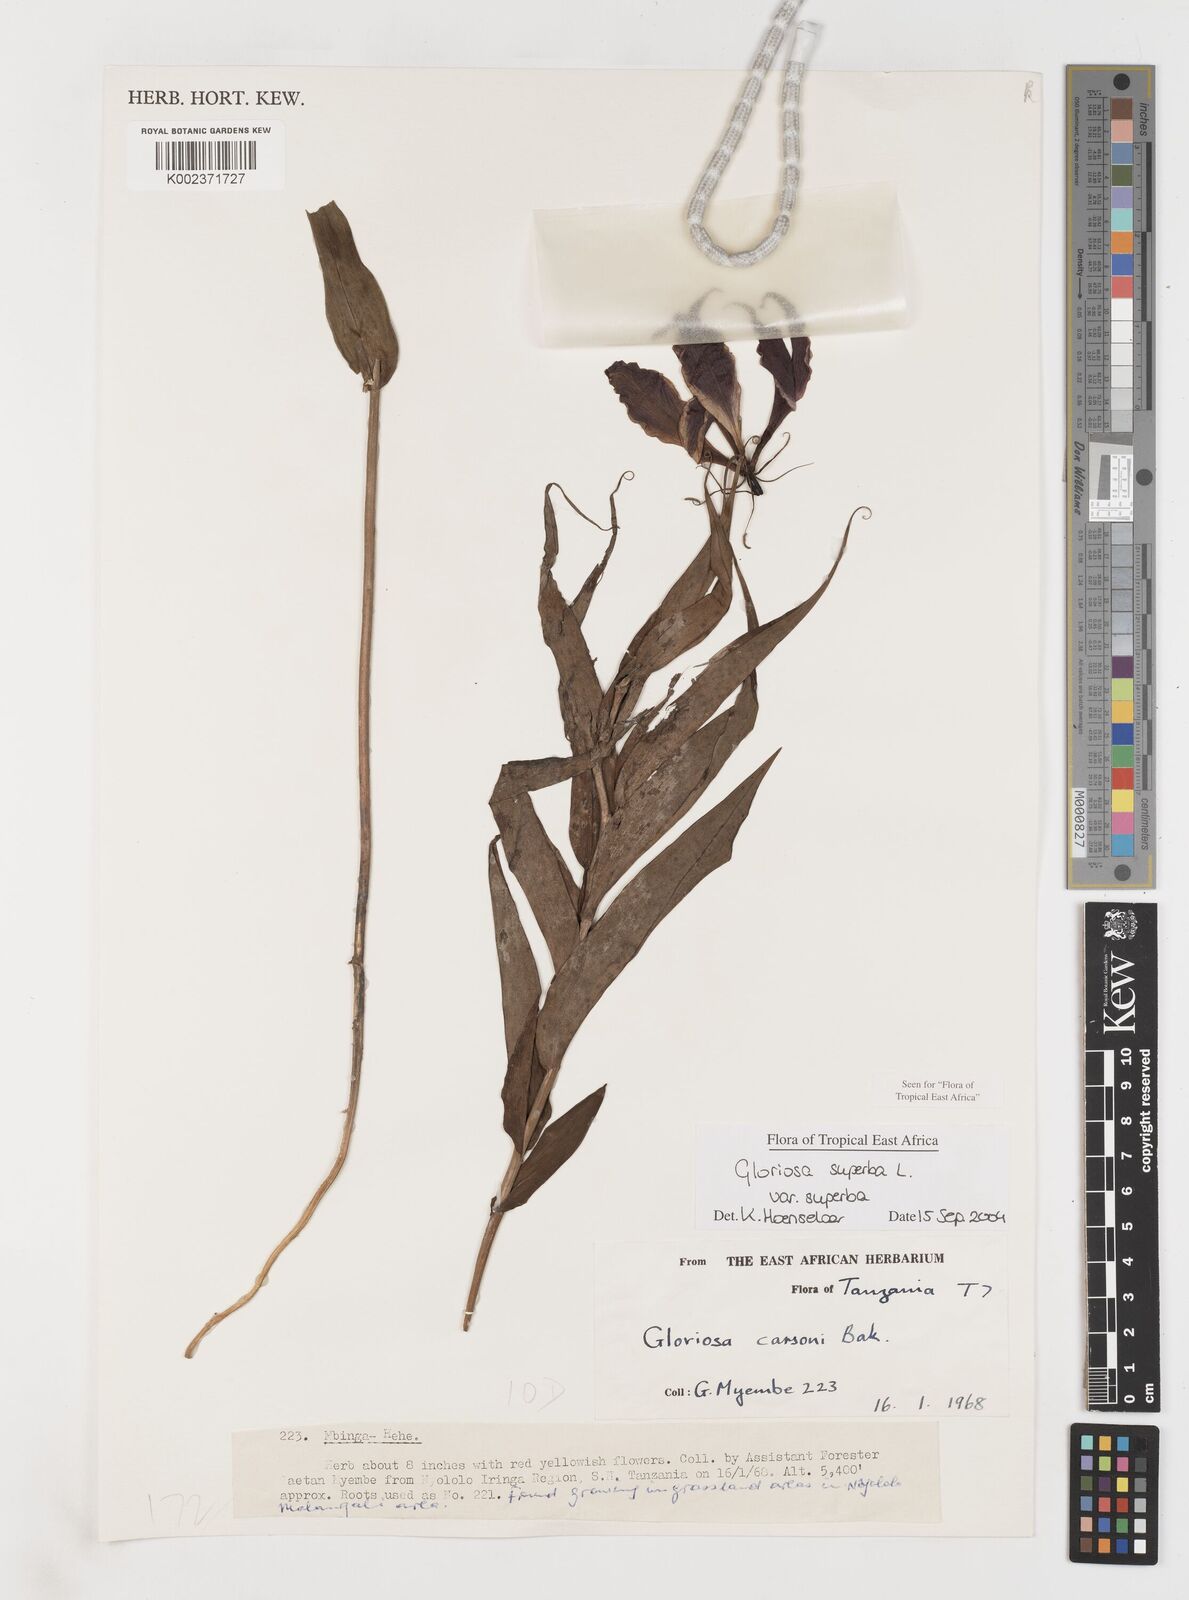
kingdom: Plantae
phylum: Tracheophyta
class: Liliopsida
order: Liliales
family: Colchicaceae
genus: Gloriosa
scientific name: Gloriosa simplex
